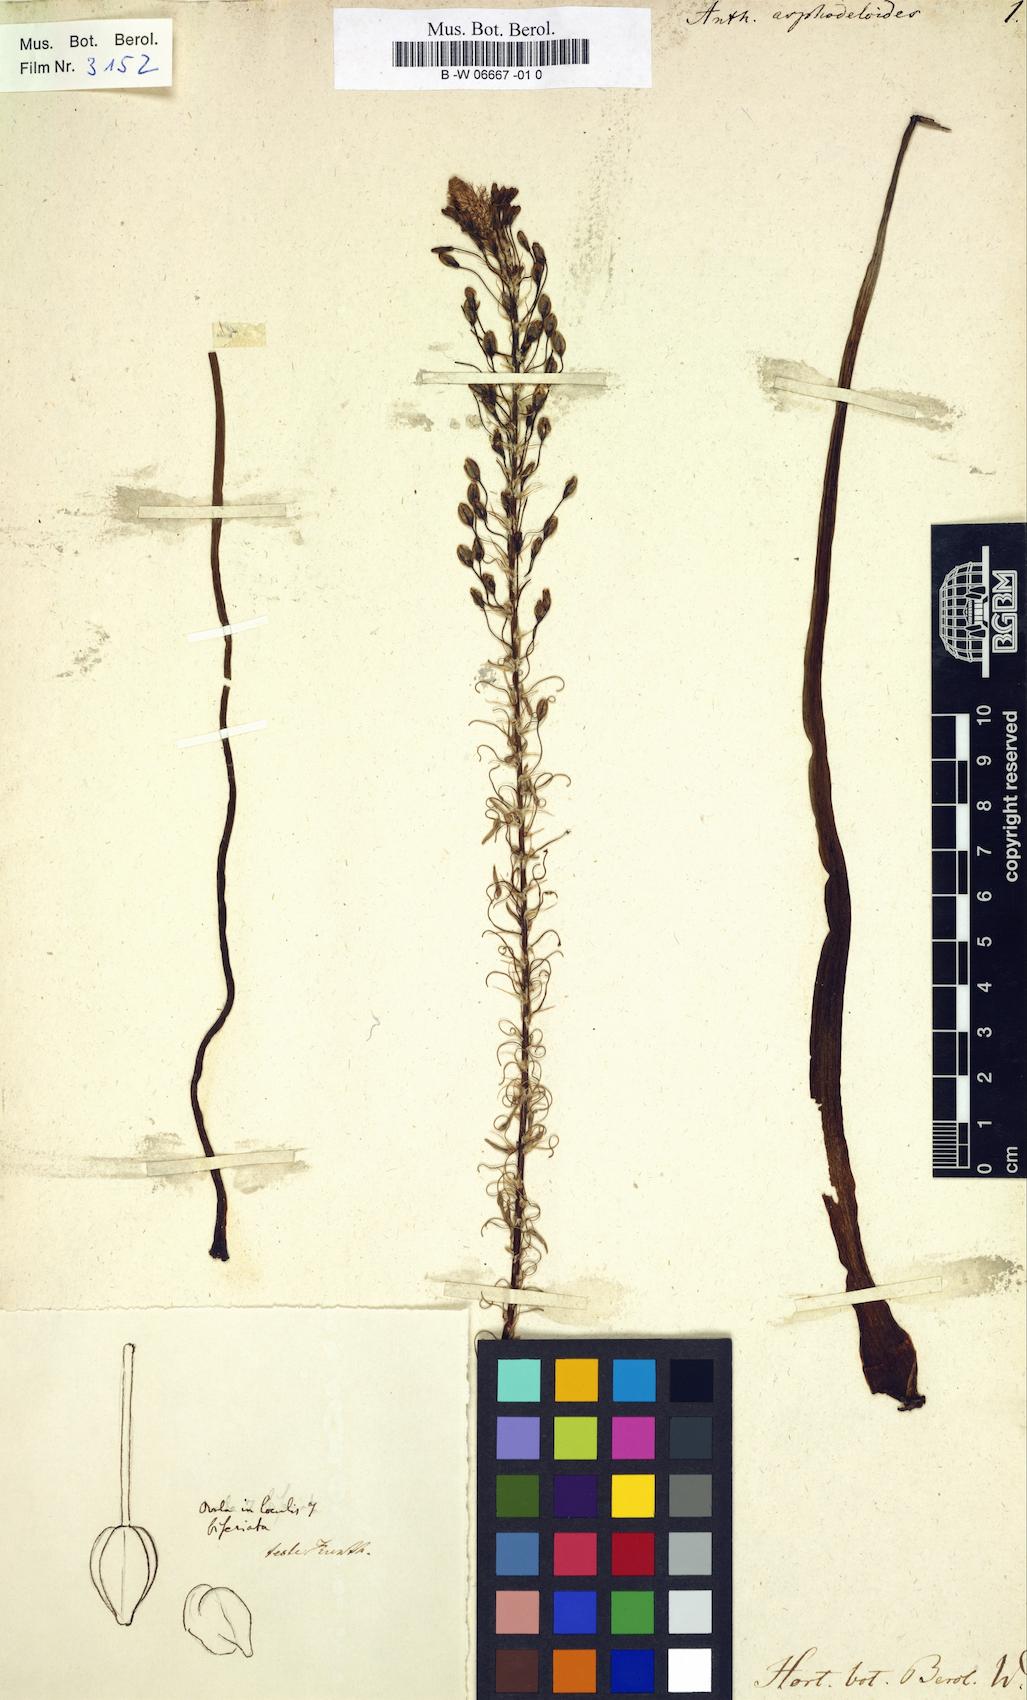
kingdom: Plantae
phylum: Tracheophyta
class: Liliopsida
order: Asparagales
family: Asparagaceae
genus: Anthericum
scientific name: Anthericum asphodeloides
